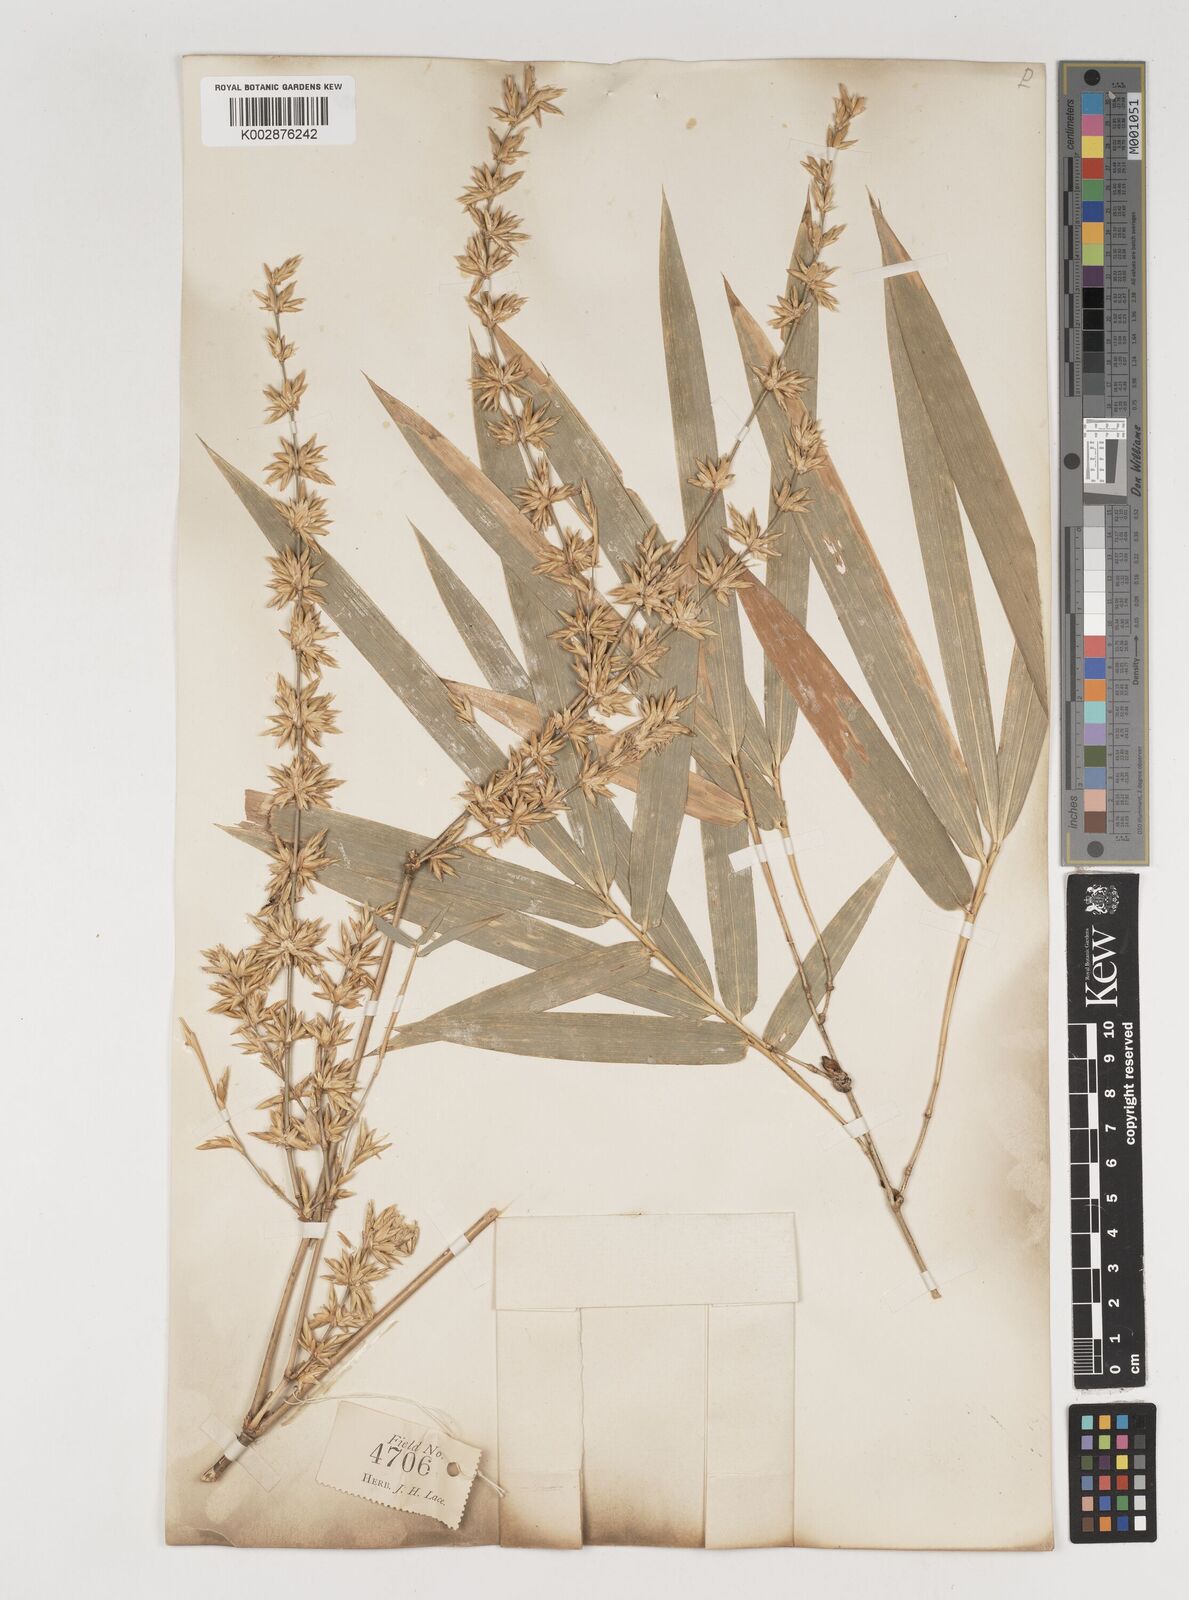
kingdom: Plantae
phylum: Tracheophyta
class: Liliopsida
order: Poales
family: Poaceae
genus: Bambusa
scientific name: Bambusa bambos
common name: Indian thorny bamboo
